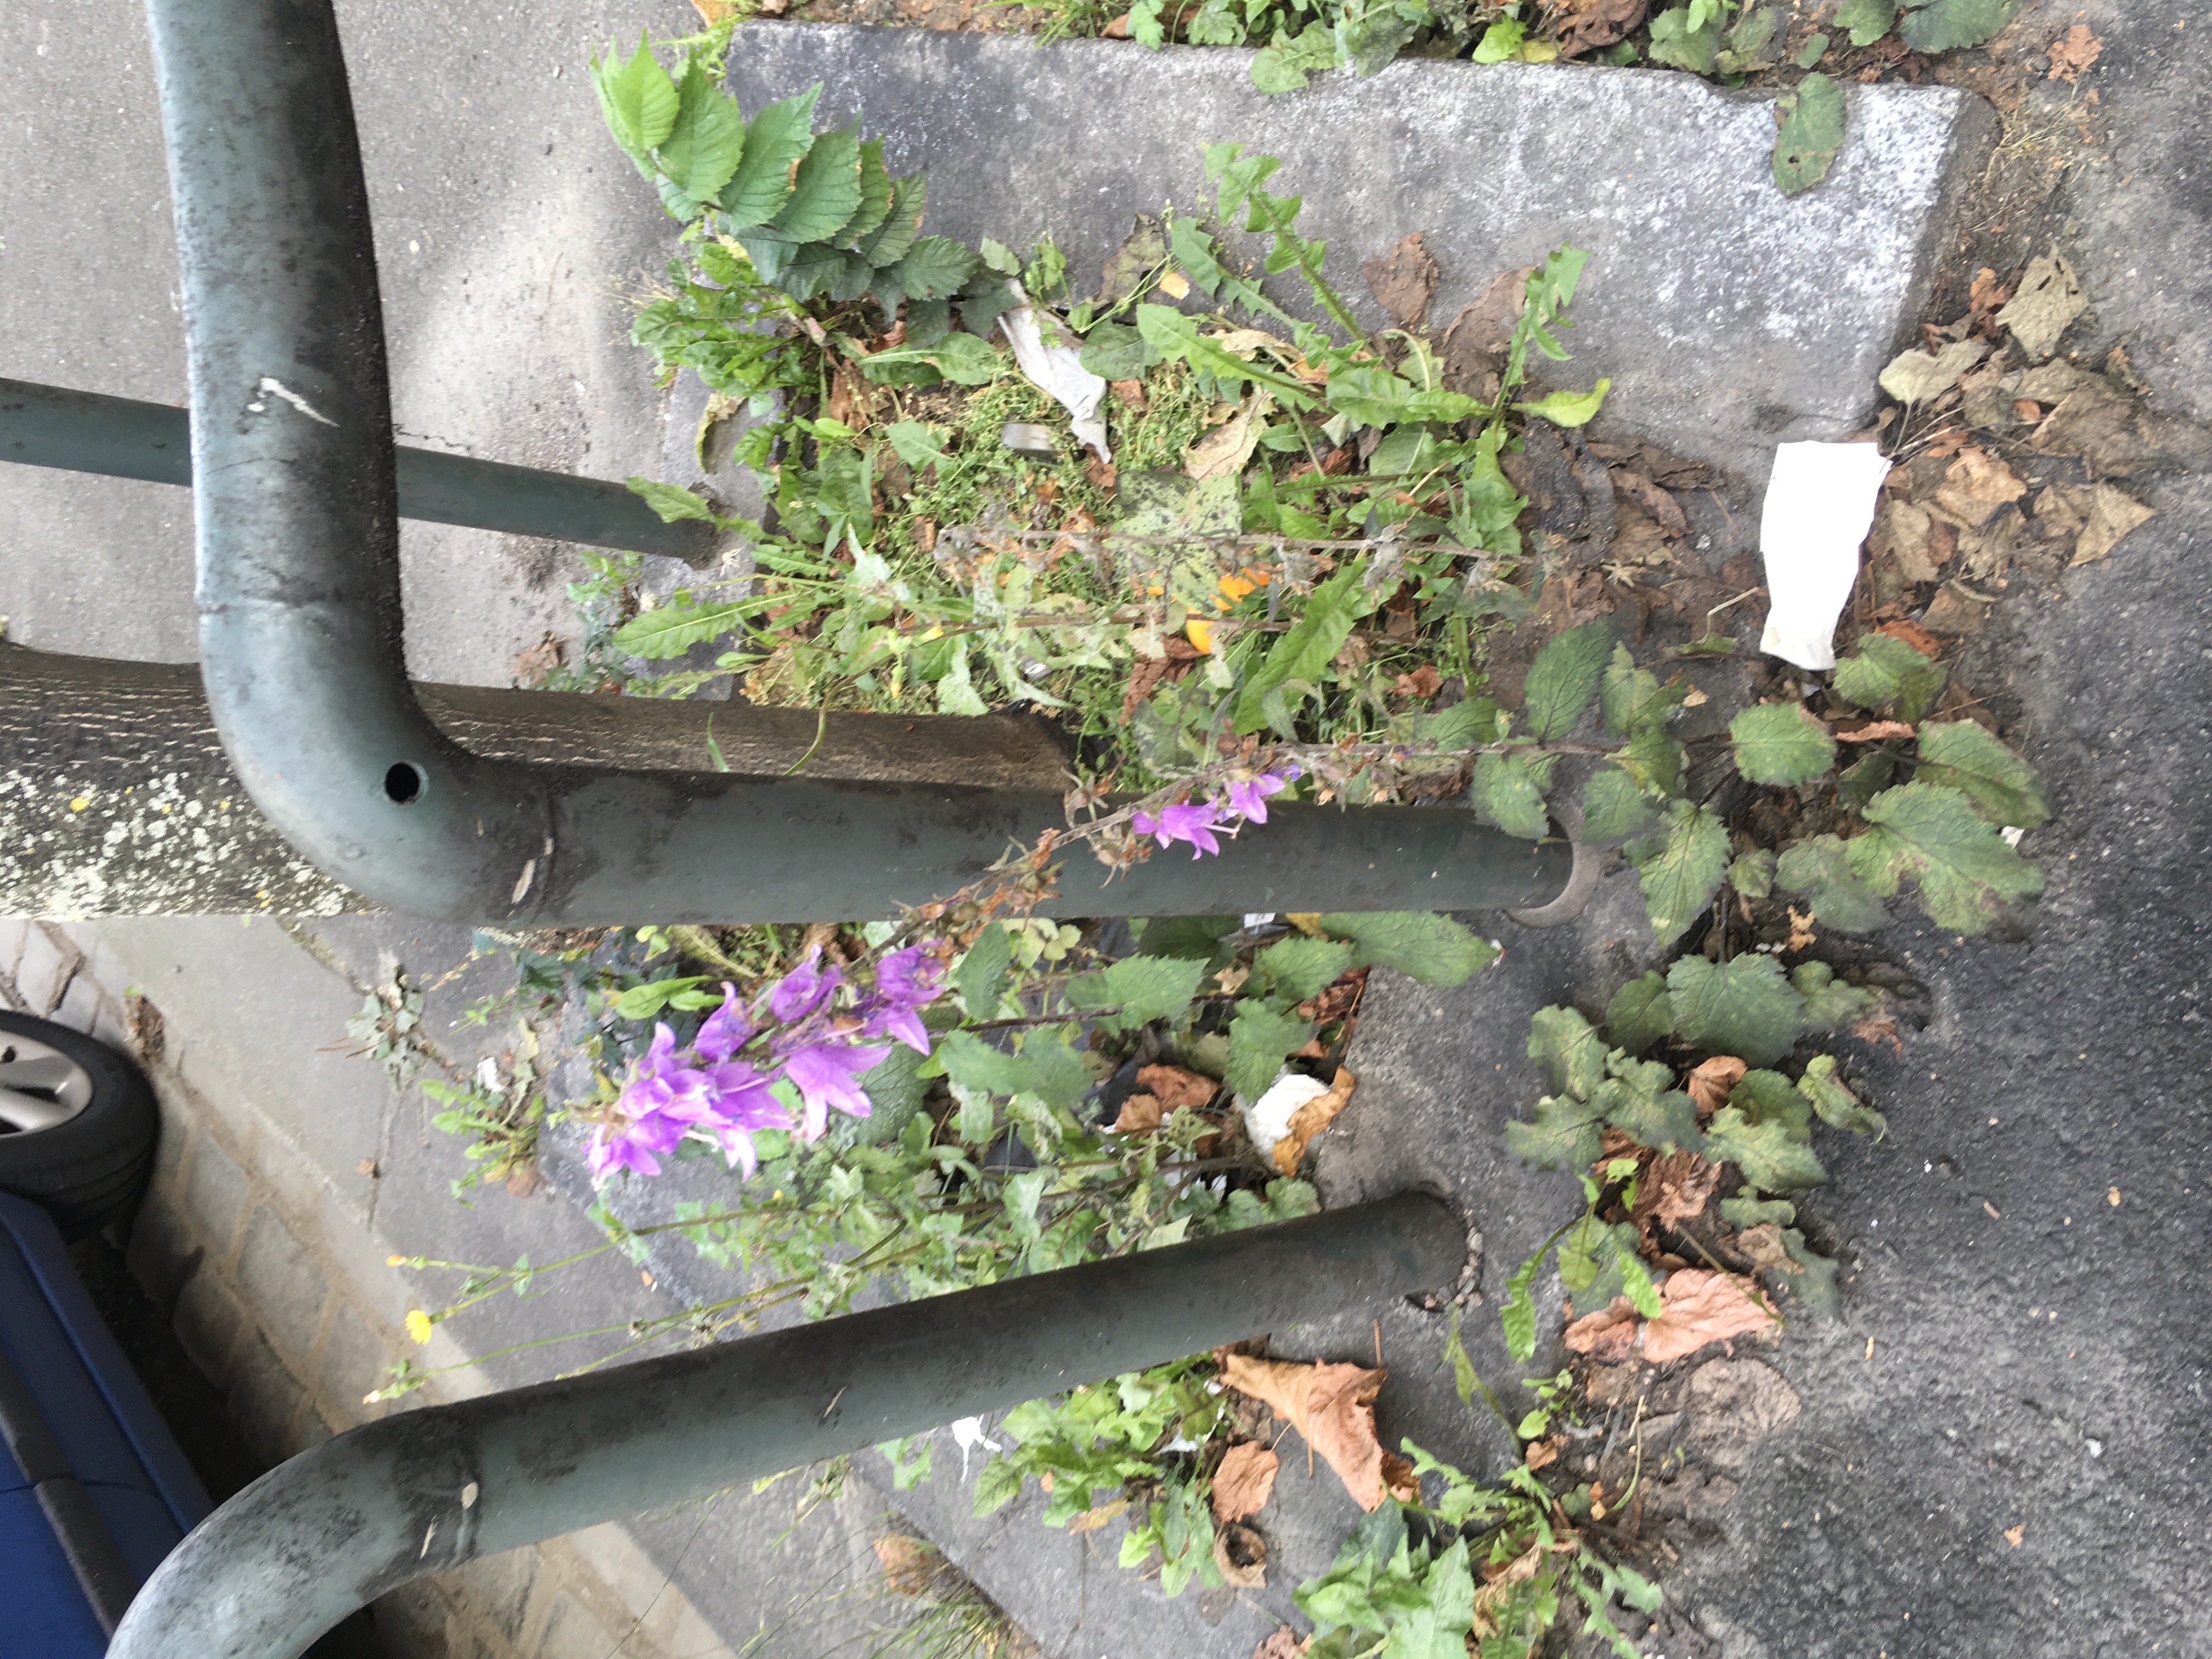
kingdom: Plantae
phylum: Tracheophyta
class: Magnoliopsida
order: Asterales
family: Campanulaceae
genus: Campanula
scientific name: Campanula rapunculoides
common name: ugrasklokke
